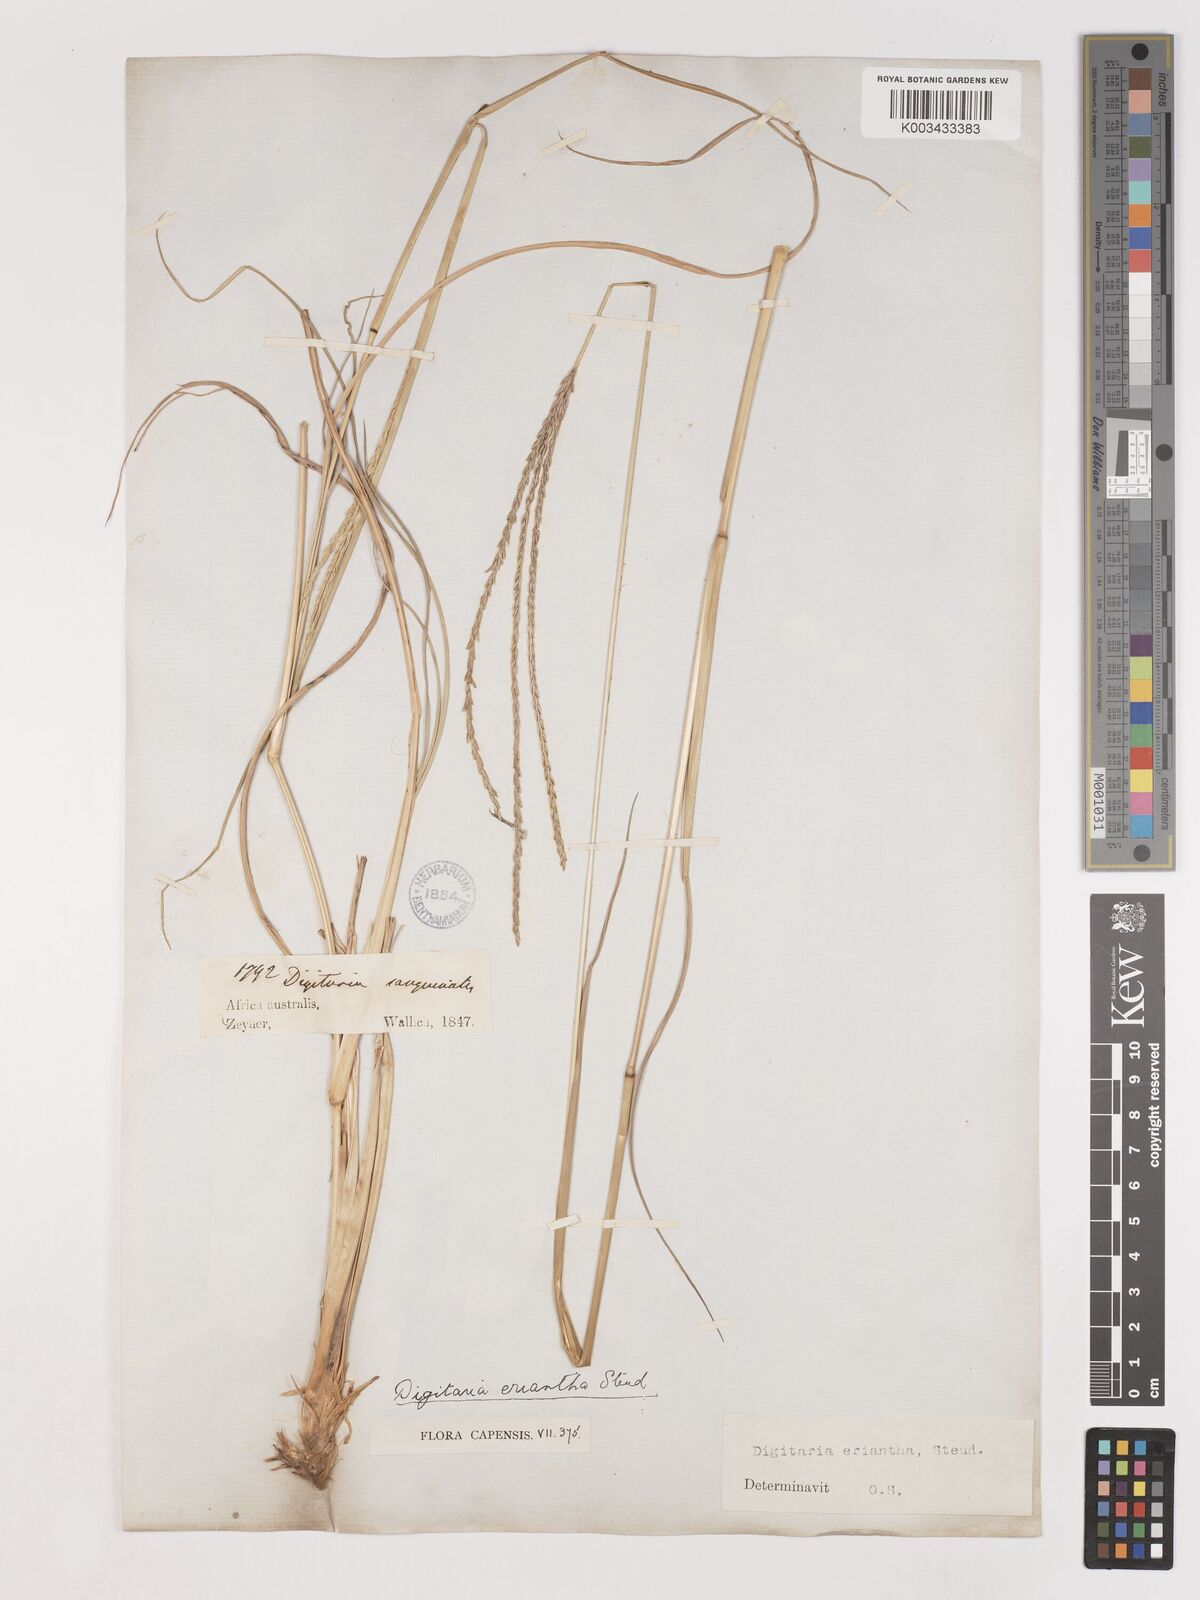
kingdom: Plantae
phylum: Tracheophyta
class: Liliopsida
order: Poales
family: Poaceae
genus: Digitaria
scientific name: Digitaria eriantha
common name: Digitgrass
